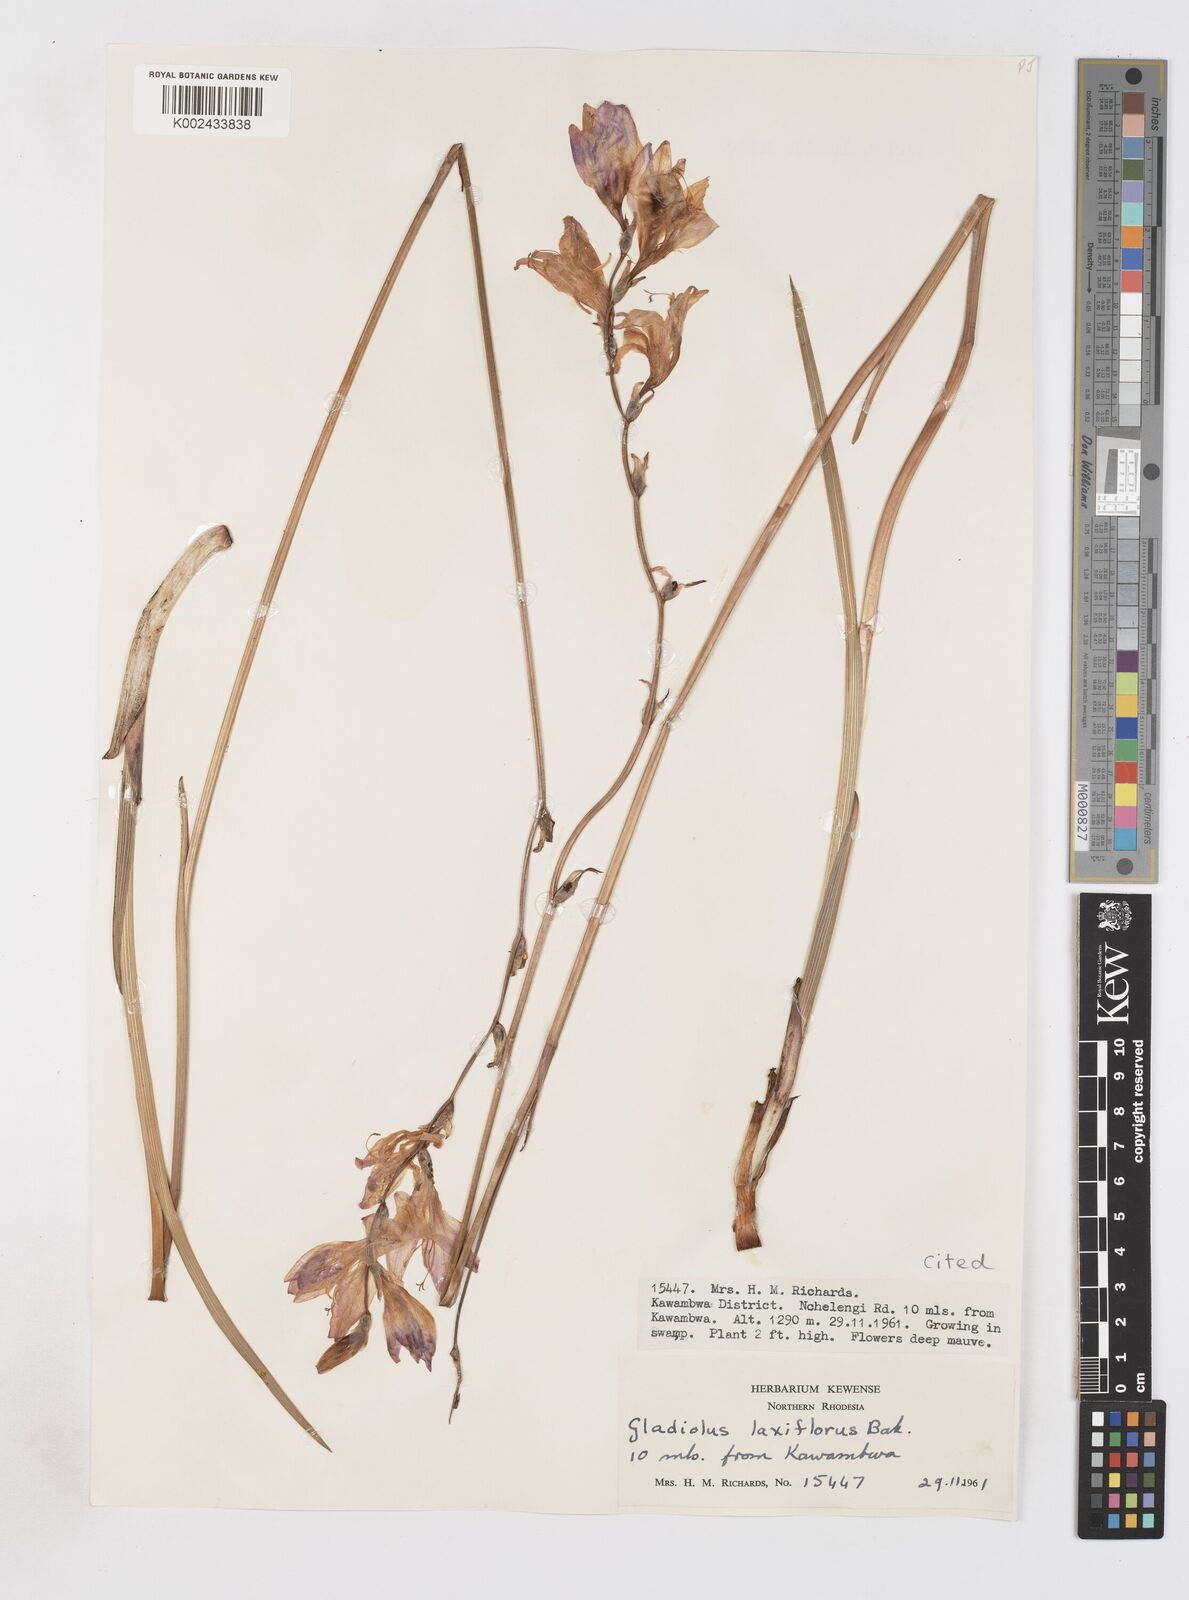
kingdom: Plantae
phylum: Tracheophyta
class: Liliopsida
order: Asparagales
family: Iridaceae
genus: Gladiolus
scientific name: Gladiolus laxiflorus
